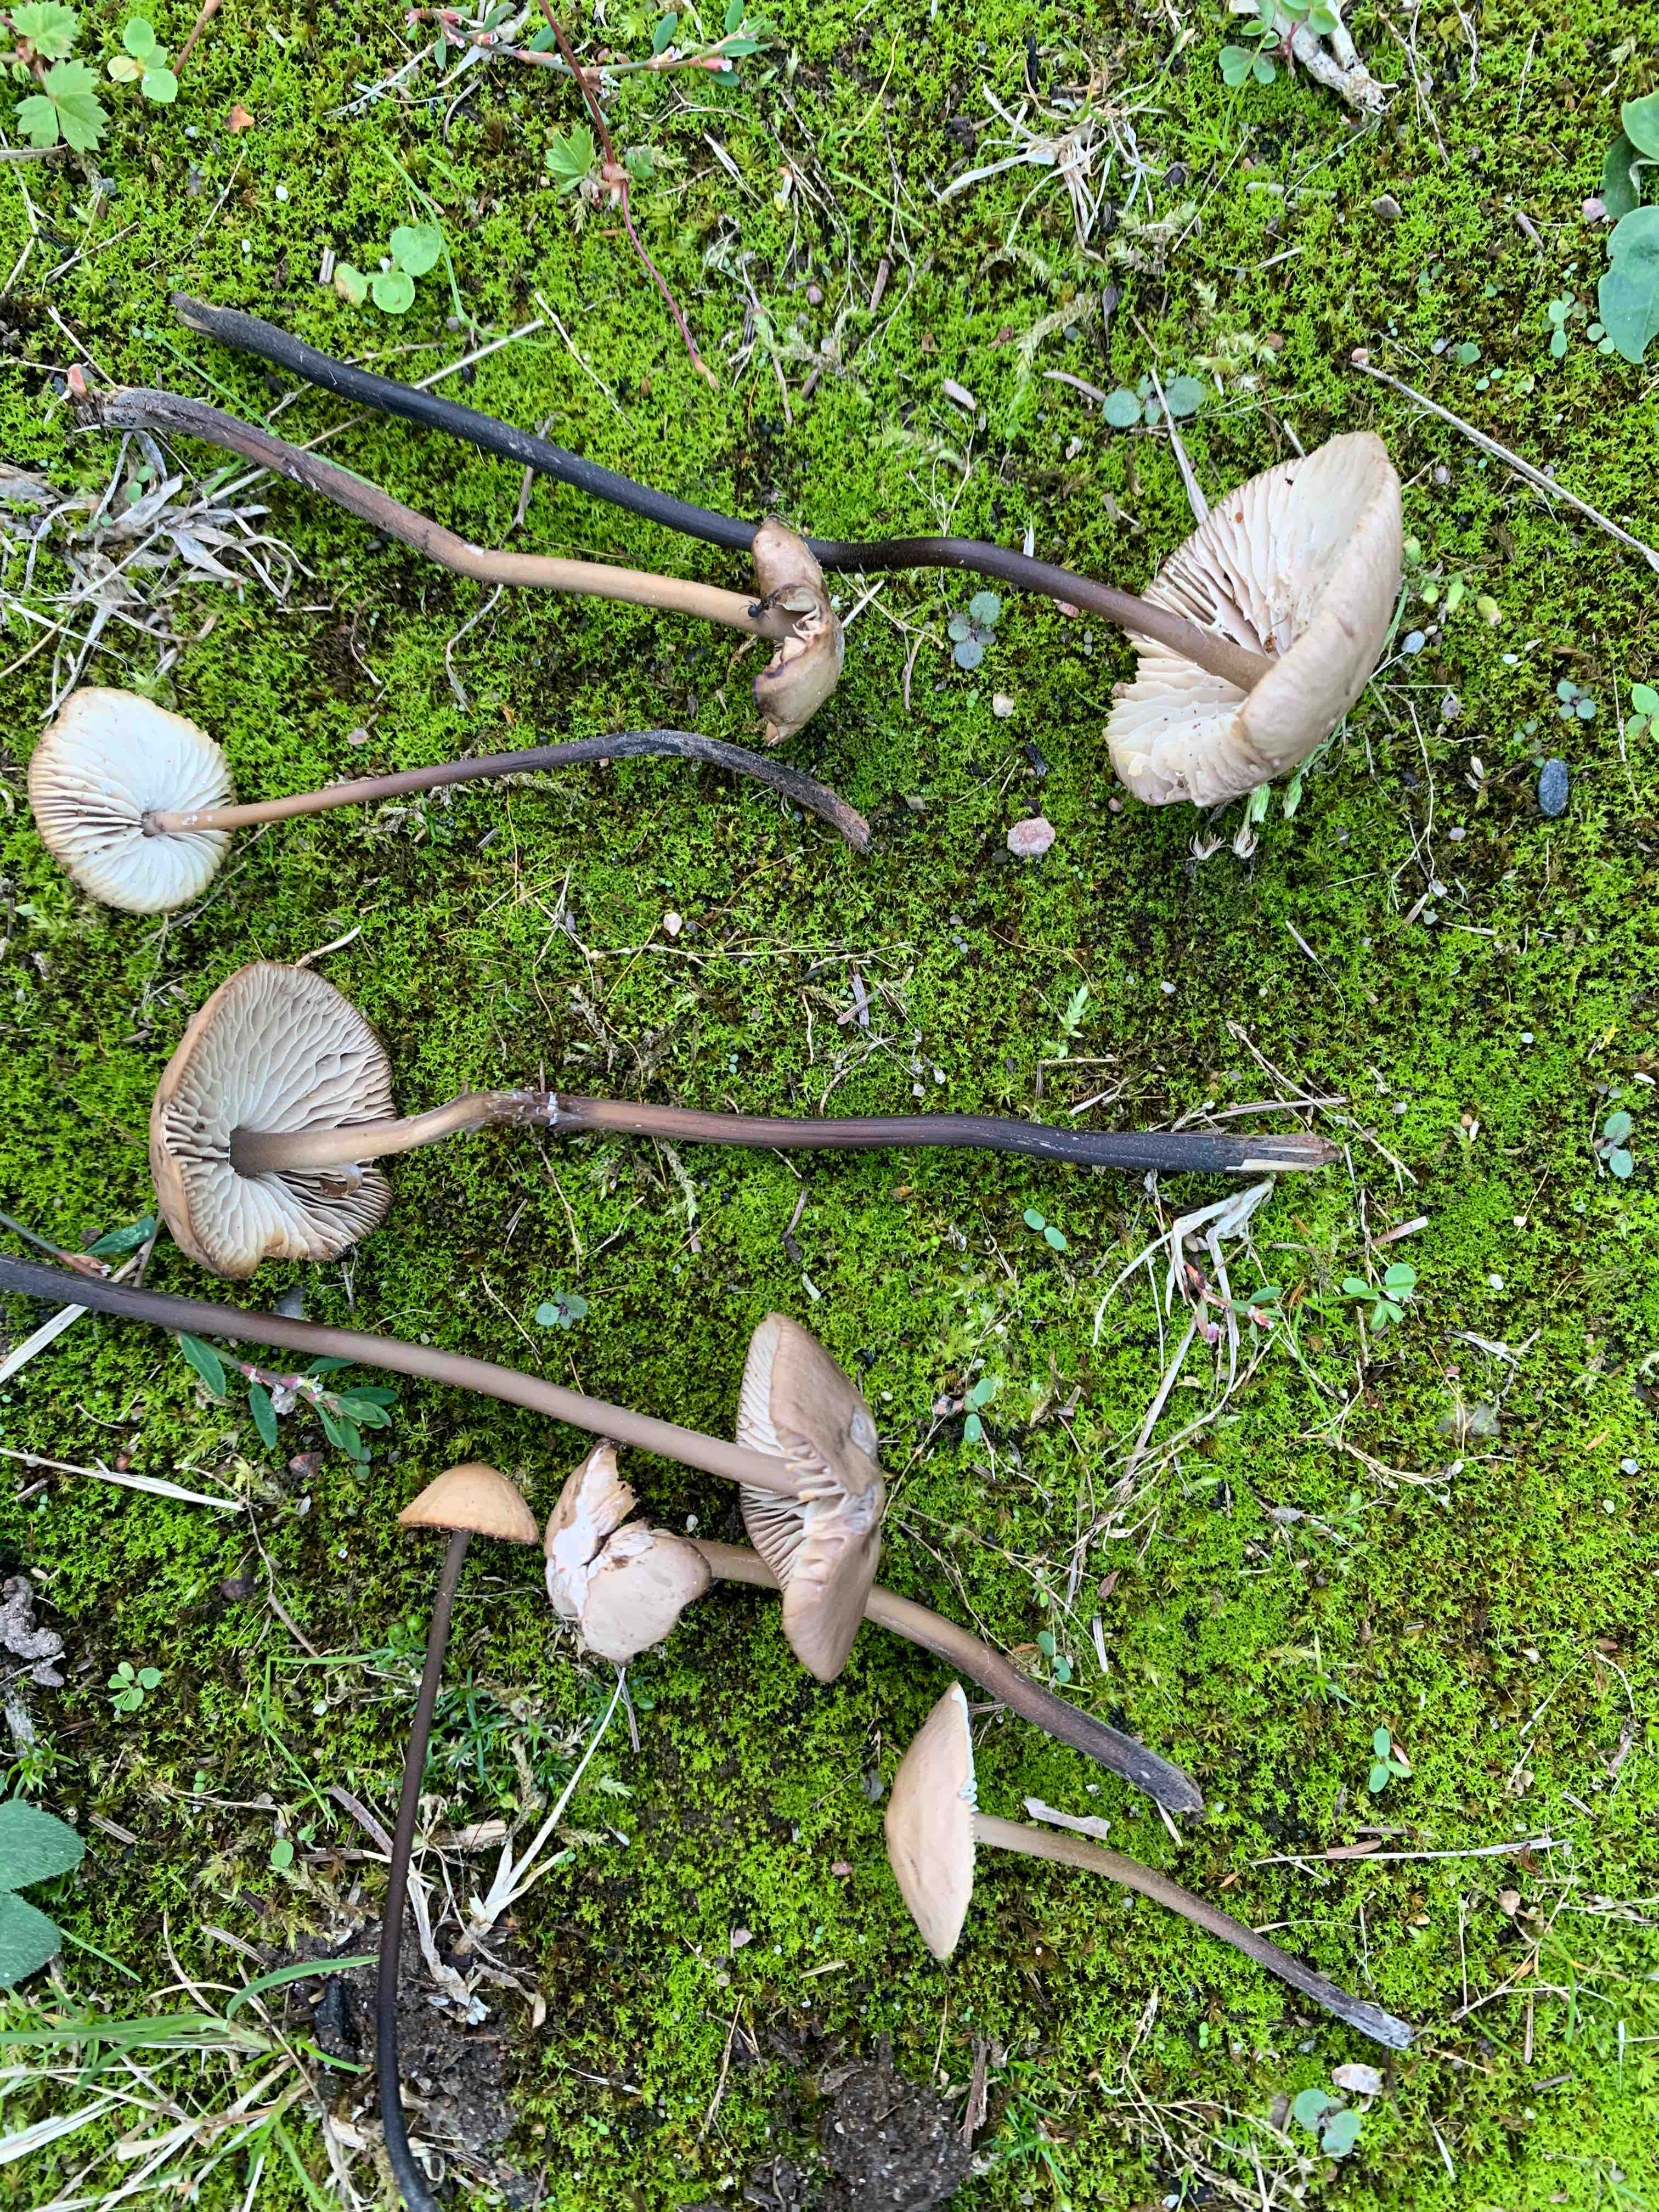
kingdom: Fungi
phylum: Basidiomycota
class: Agaricomycetes
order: Agaricales
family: Omphalotaceae
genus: Mycetinis
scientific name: Mycetinis alliaceus
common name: stor løghat
